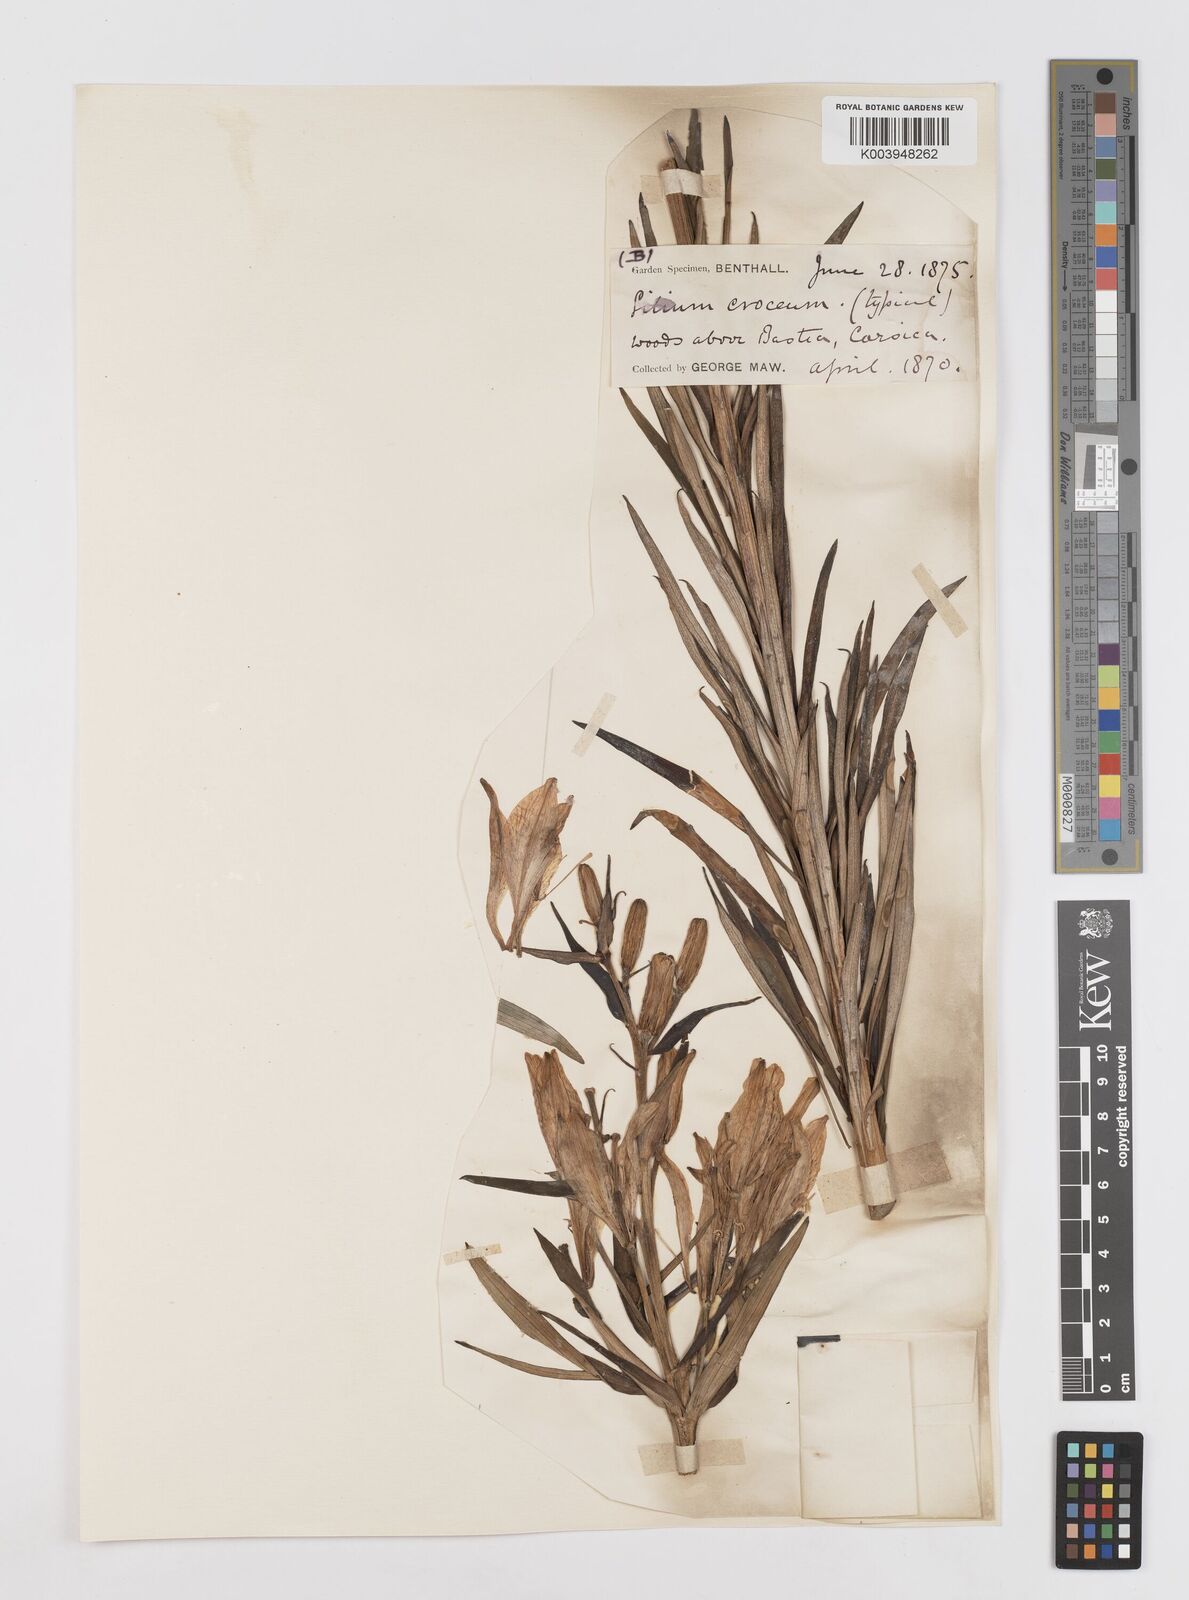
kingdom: Plantae
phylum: Tracheophyta
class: Liliopsida
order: Liliales
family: Liliaceae
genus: Lilium
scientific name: Lilium bulbiferum
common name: Orange lily
